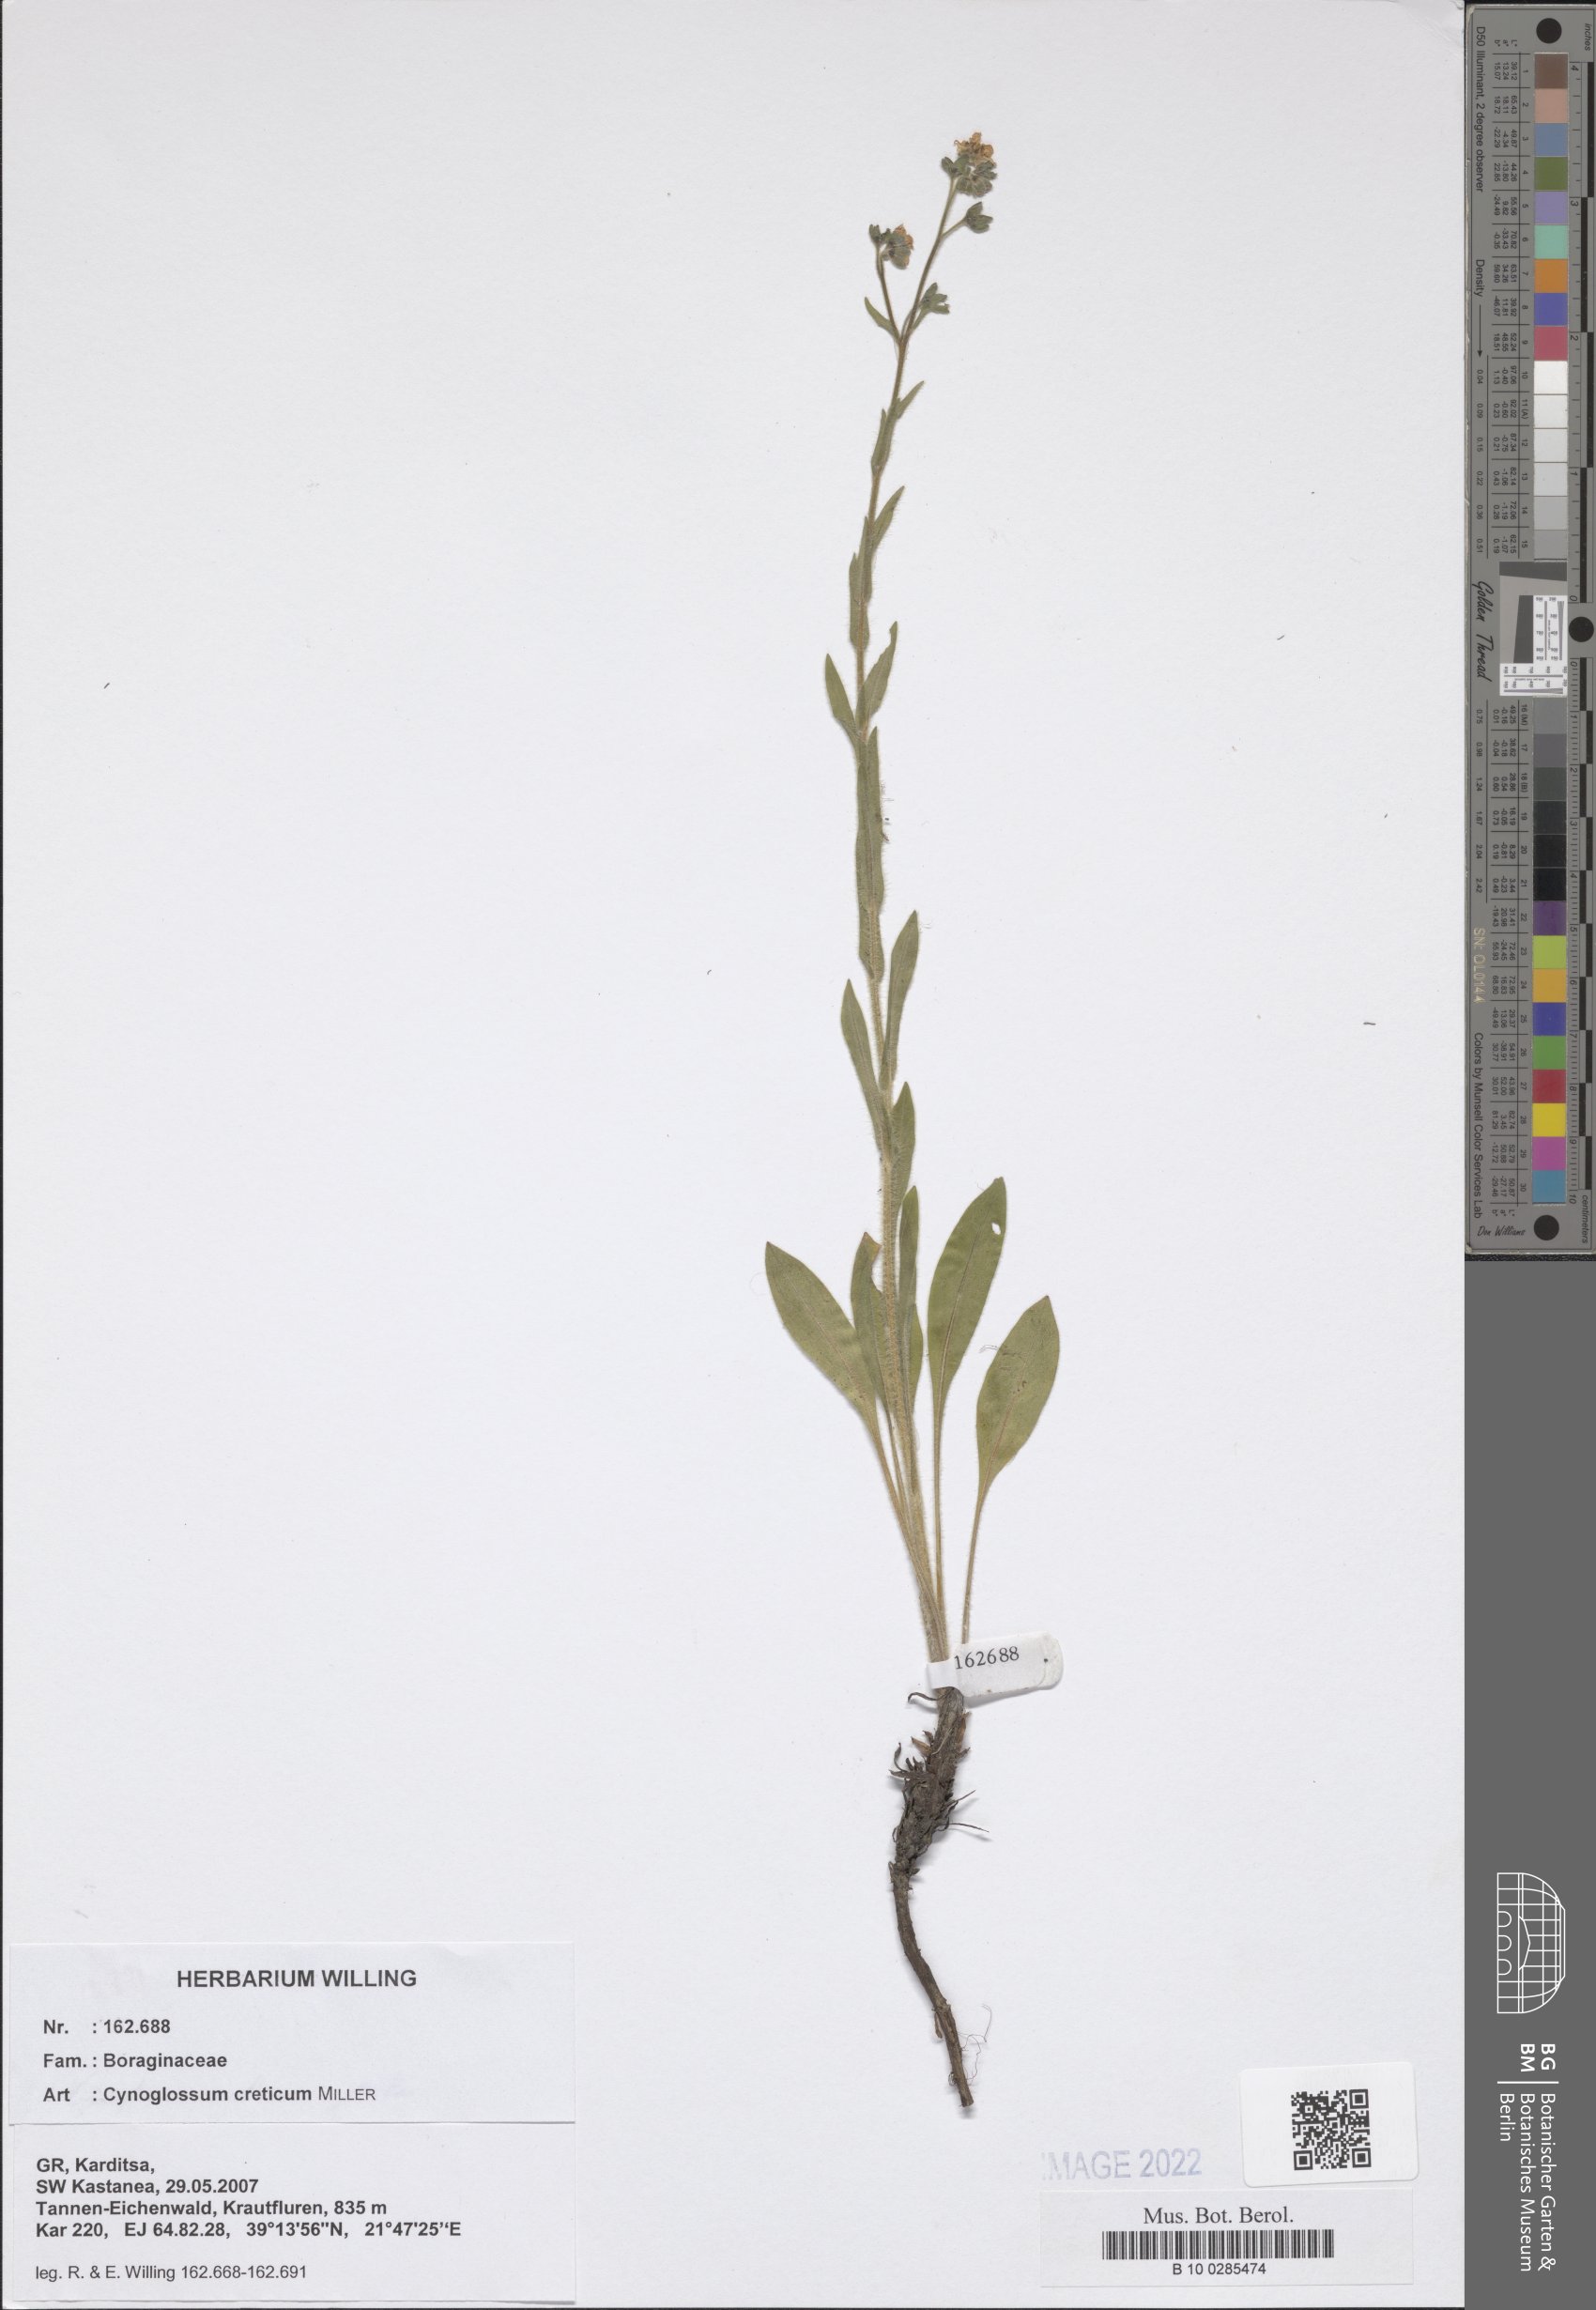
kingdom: Plantae
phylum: Tracheophyta
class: Magnoliopsida
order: Boraginales
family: Boraginaceae
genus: Cynoglossum
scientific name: Cynoglossum creticum
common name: Blue hound's tongue
